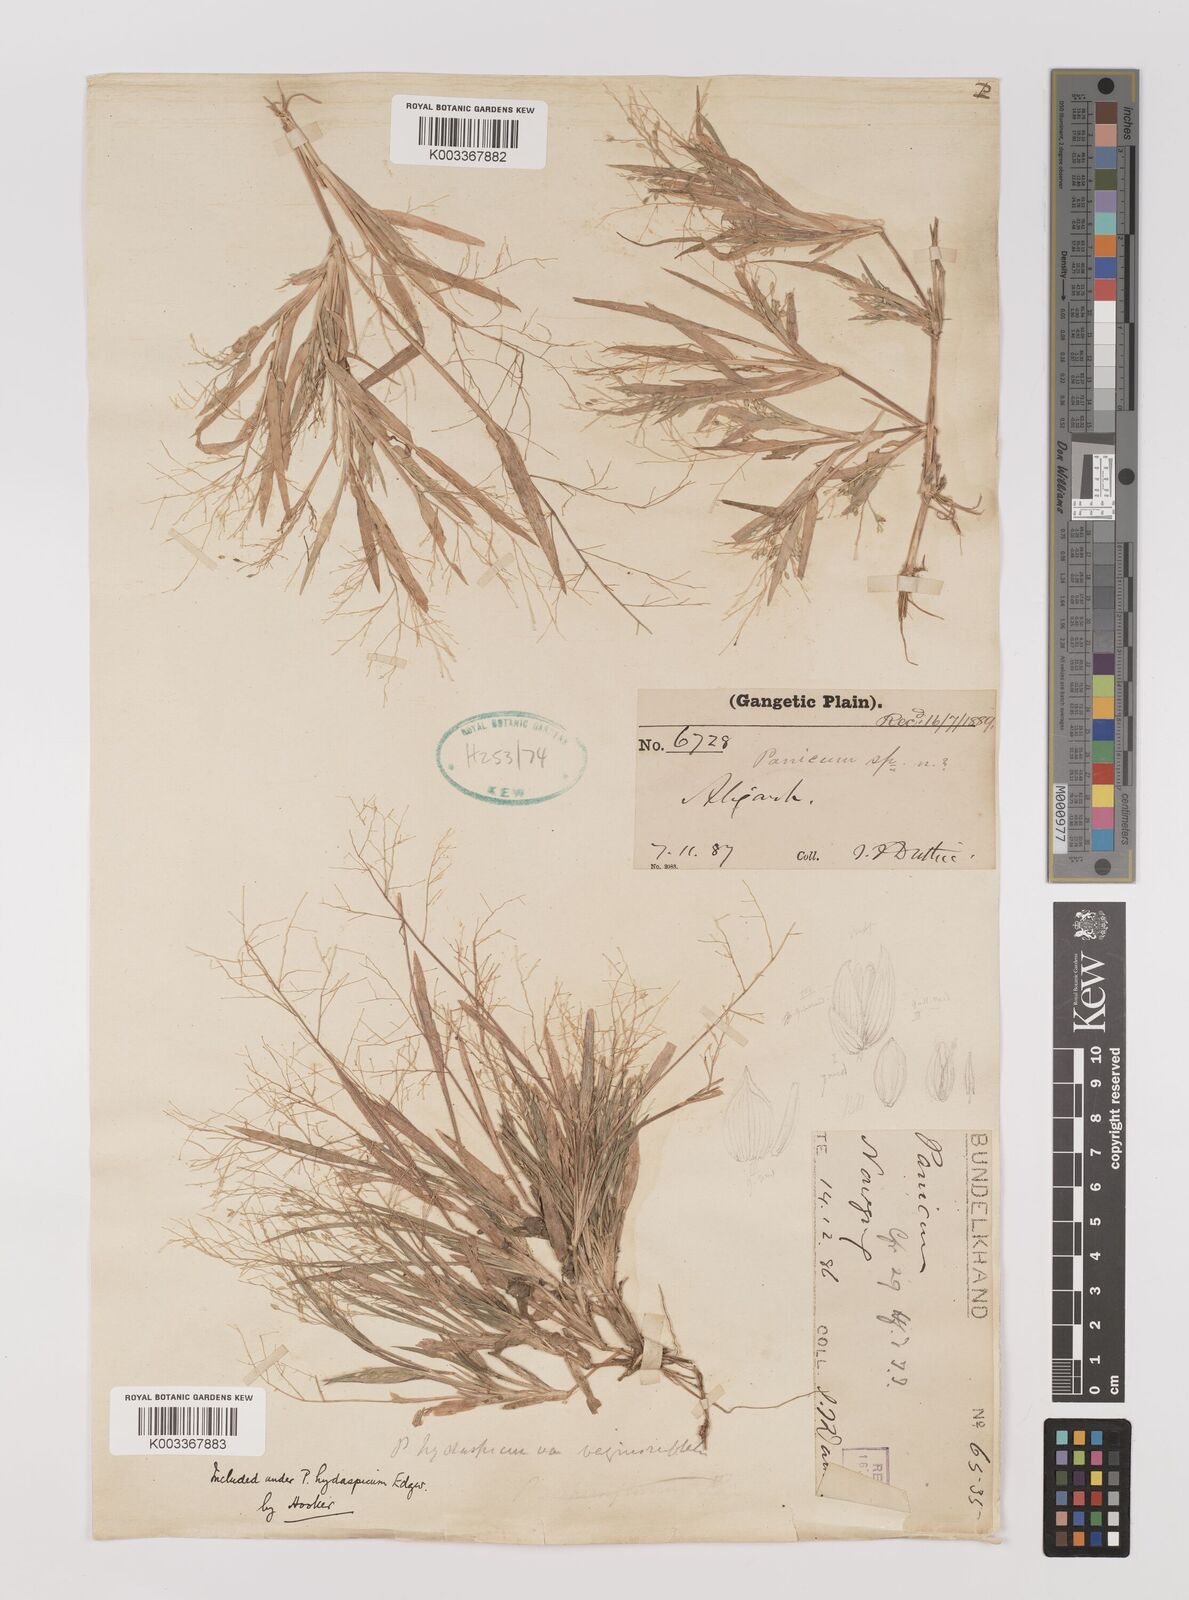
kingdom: Plantae
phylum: Tracheophyta
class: Liliopsida
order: Poales
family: Poaceae
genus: Panicum
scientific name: Panicum atrosanguineum
